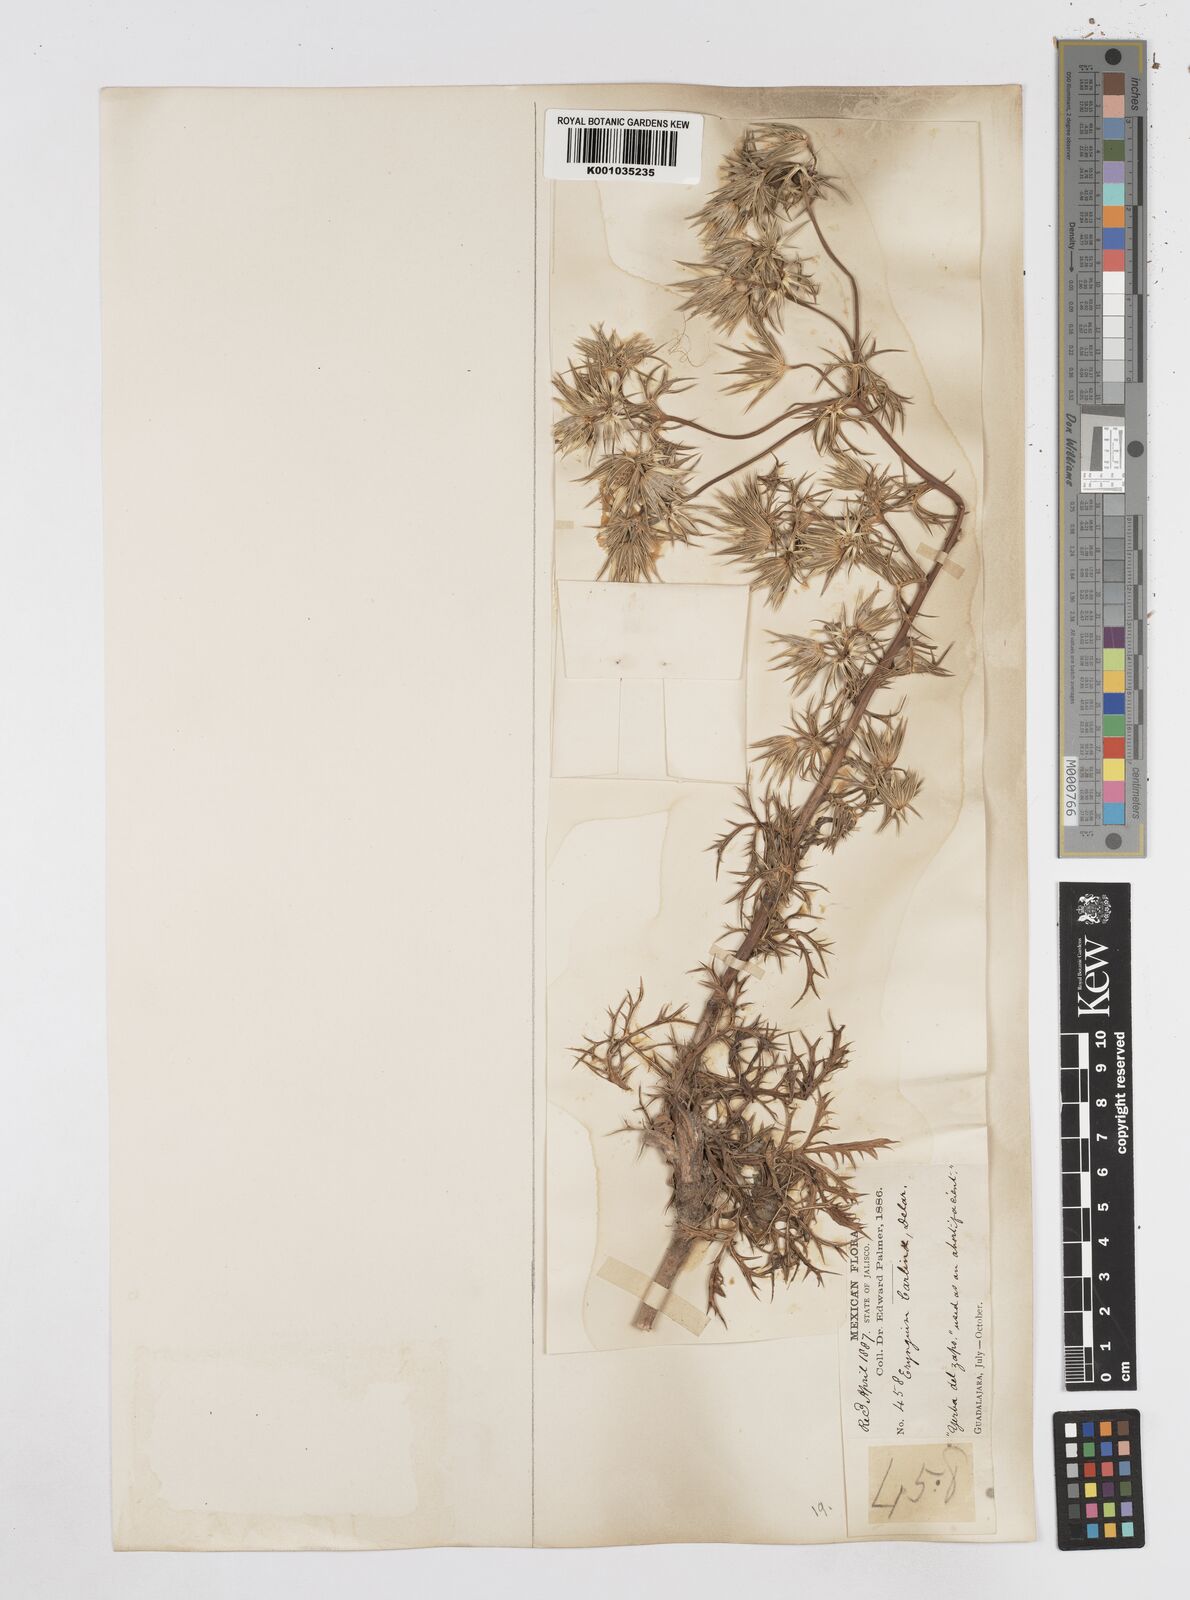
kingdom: Plantae
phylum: Tracheophyta
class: Magnoliopsida
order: Apiales
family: Apiaceae
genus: Eryngium
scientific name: Eryngium heterophyllum
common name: Mexican thistle
